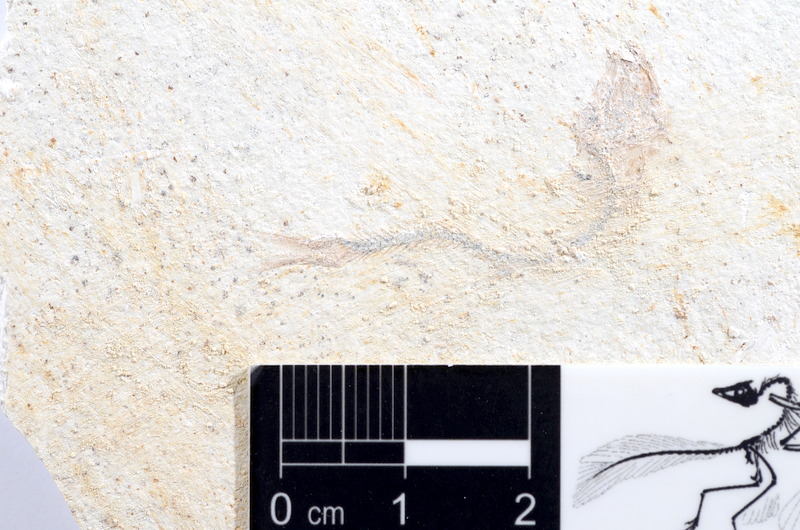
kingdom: Animalia
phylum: Chordata
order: Salmoniformes
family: Orthogonikleithridae
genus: Orthogonikleithrus
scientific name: Orthogonikleithrus hoelli
